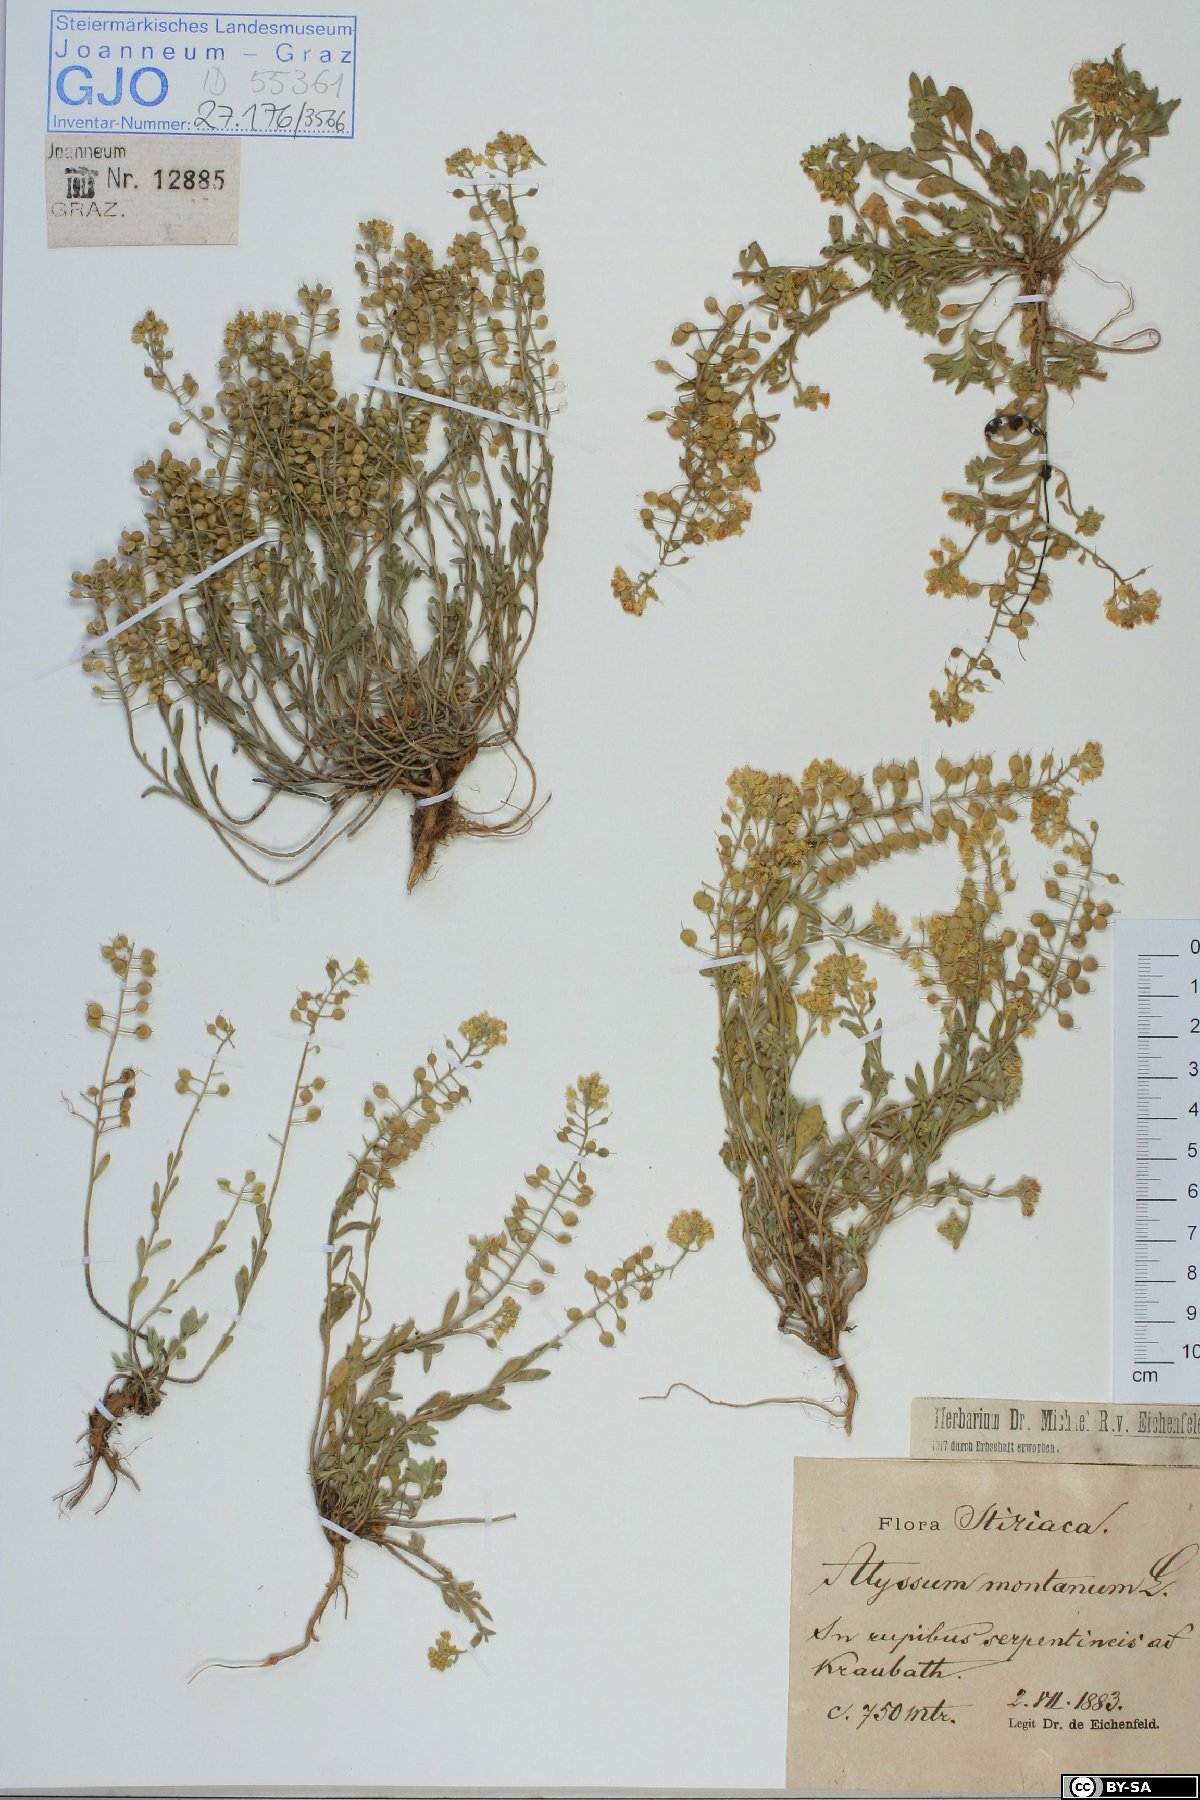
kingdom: Plantae
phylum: Tracheophyta
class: Magnoliopsida
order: Brassicales
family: Brassicaceae
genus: Alyssum
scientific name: Alyssum montanum
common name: Mountain alison
